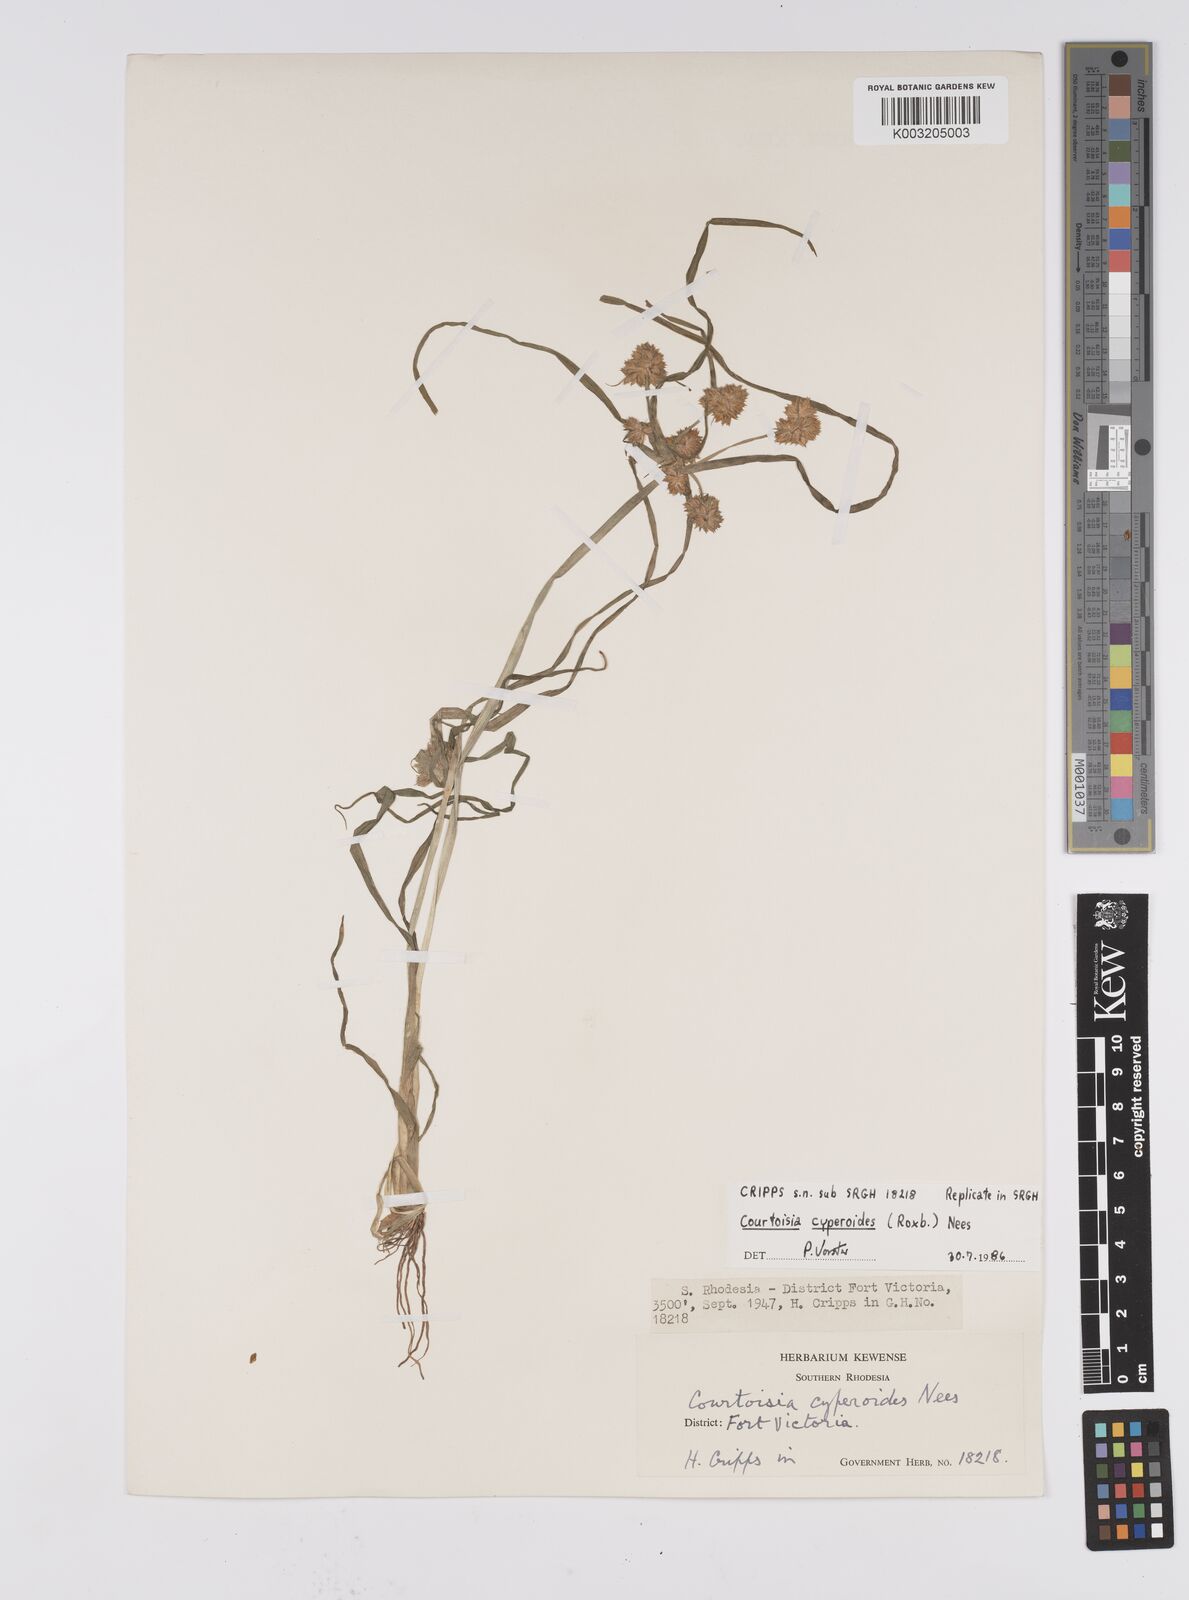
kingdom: Plantae
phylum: Tracheophyta
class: Liliopsida
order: Poales
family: Cyperaceae
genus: Cyperus
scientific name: Cyperus cyperoides
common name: Pacific island flat sedge
